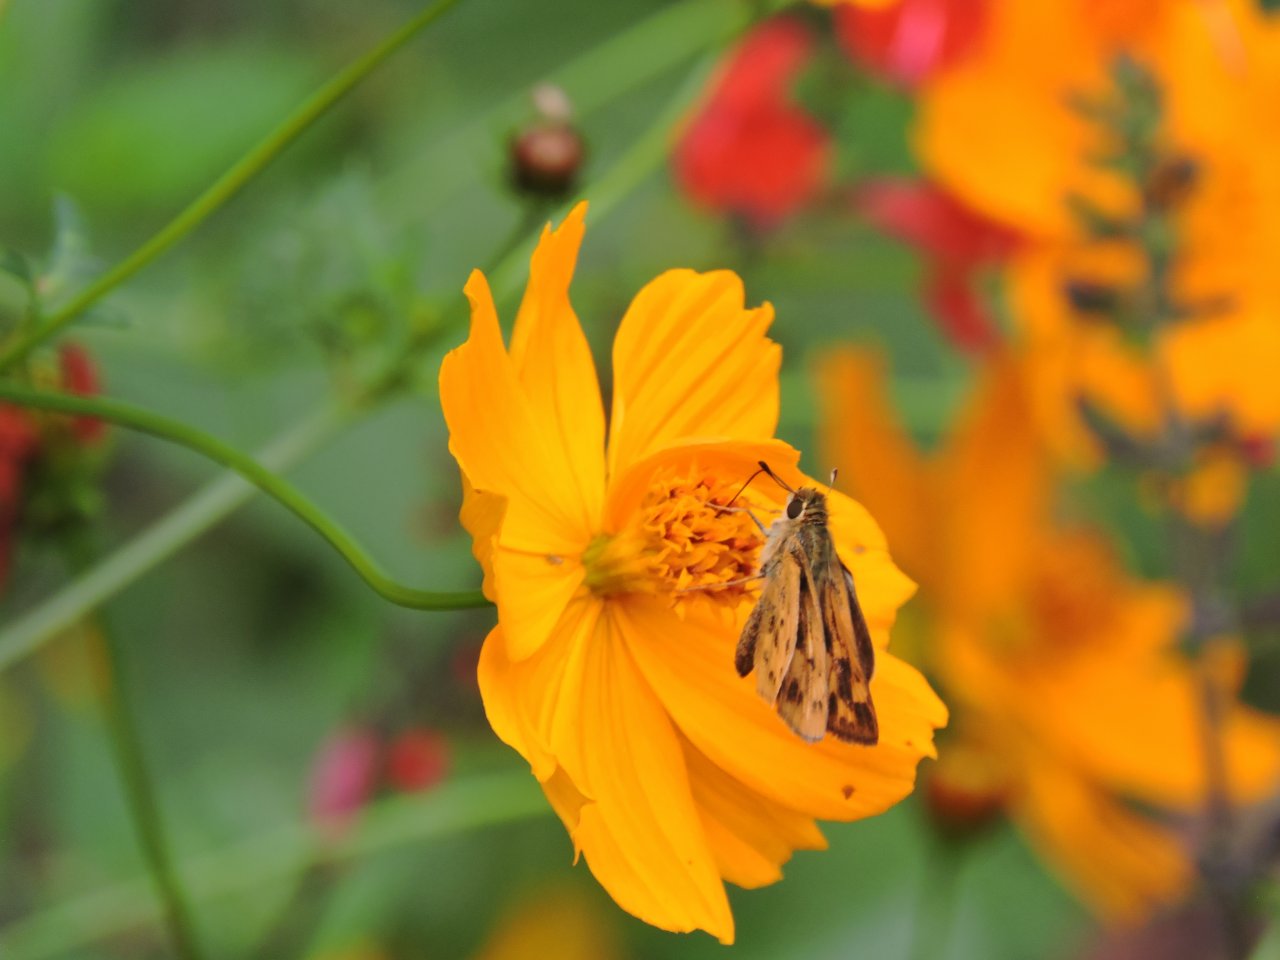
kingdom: Animalia
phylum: Arthropoda
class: Insecta
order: Lepidoptera
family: Hesperiidae
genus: Hylephila
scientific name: Hylephila phyleus
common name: Fiery Skipper
